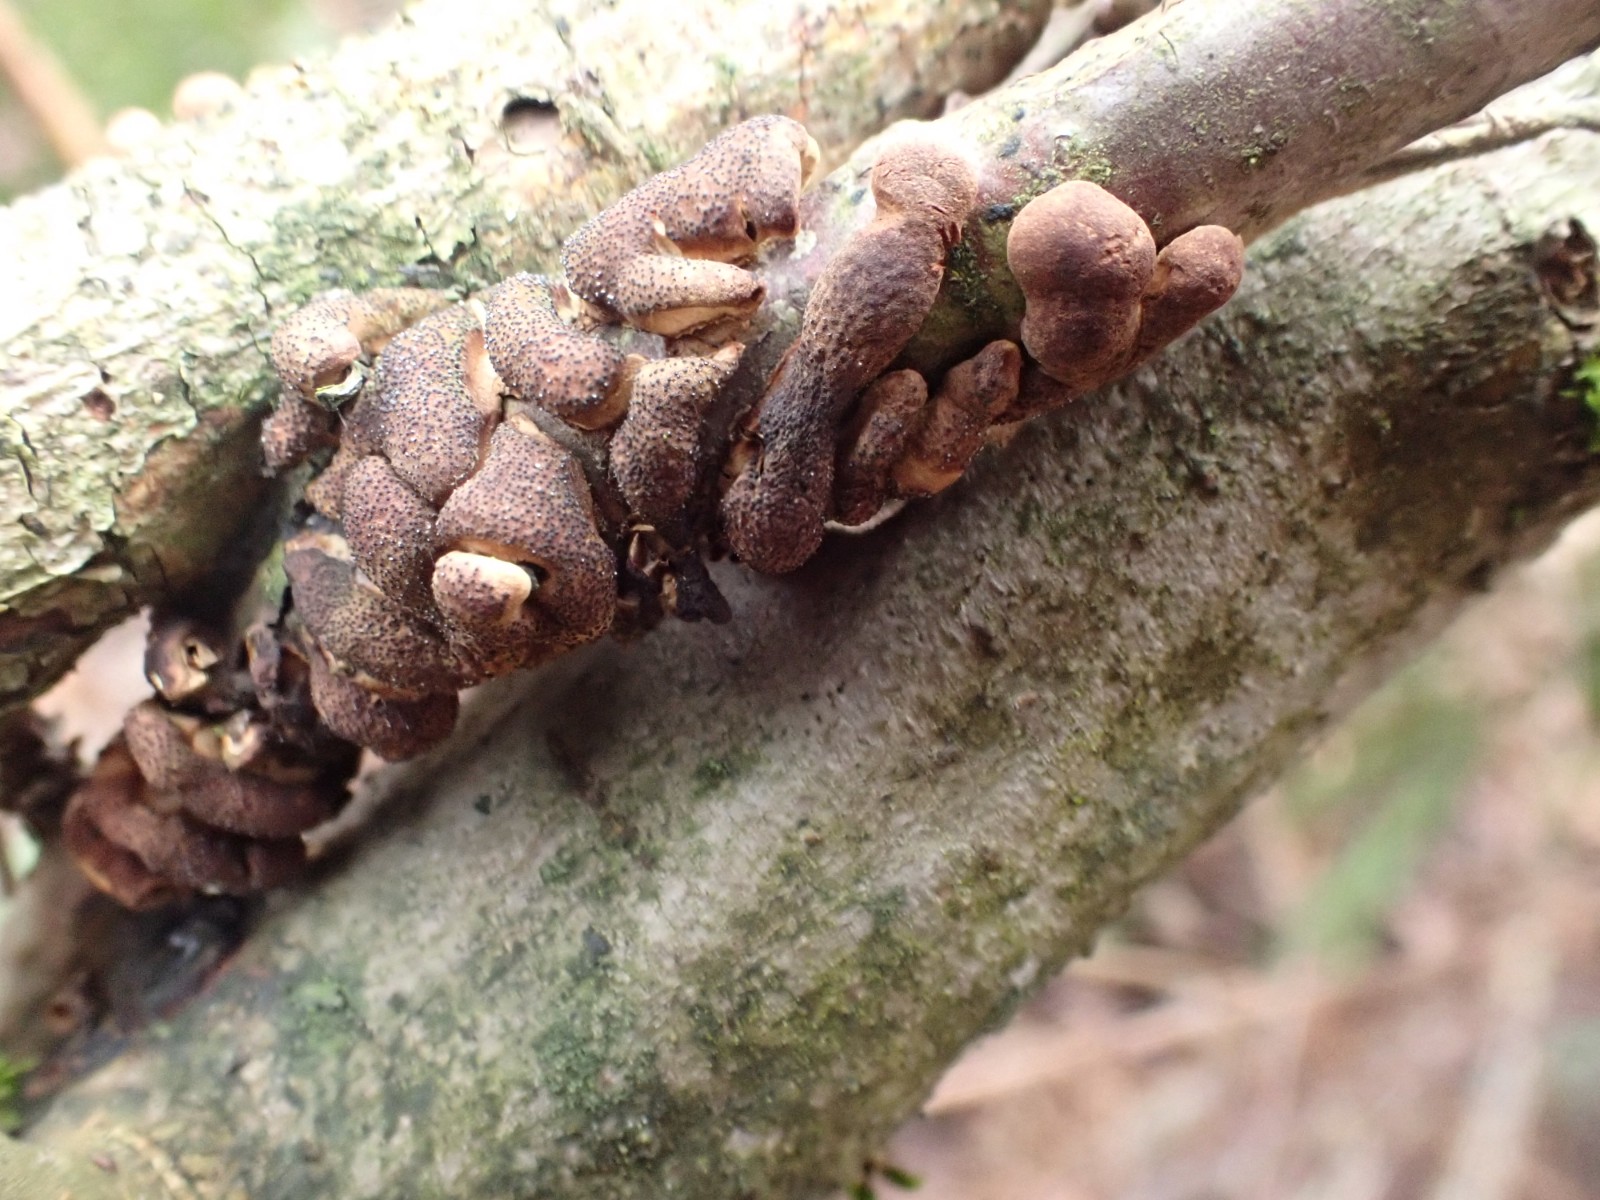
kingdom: Fungi
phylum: Ascomycota
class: Sordariomycetes
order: Hypocreales
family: Hypocreaceae
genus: Hypocreopsis
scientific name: Hypocreopsis lichenoides
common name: pilfinger
